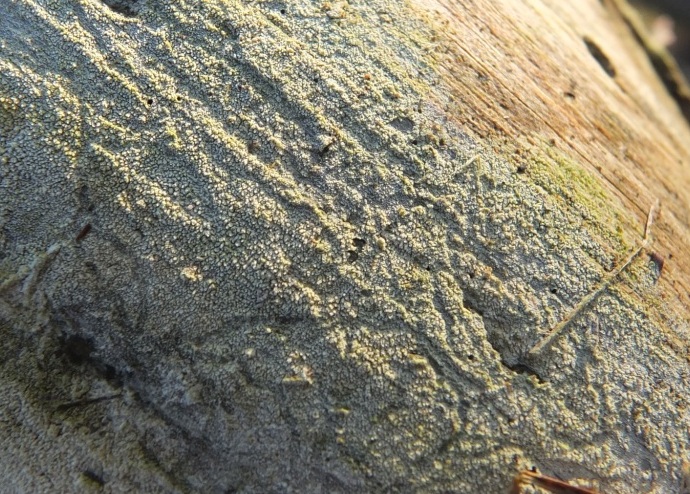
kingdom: Fungi
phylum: Basidiomycota
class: Agaricomycetes
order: Hymenochaetales
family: Rickenellaceae
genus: Resinicium
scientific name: Resinicium bicolor
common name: almindelig vokstand
